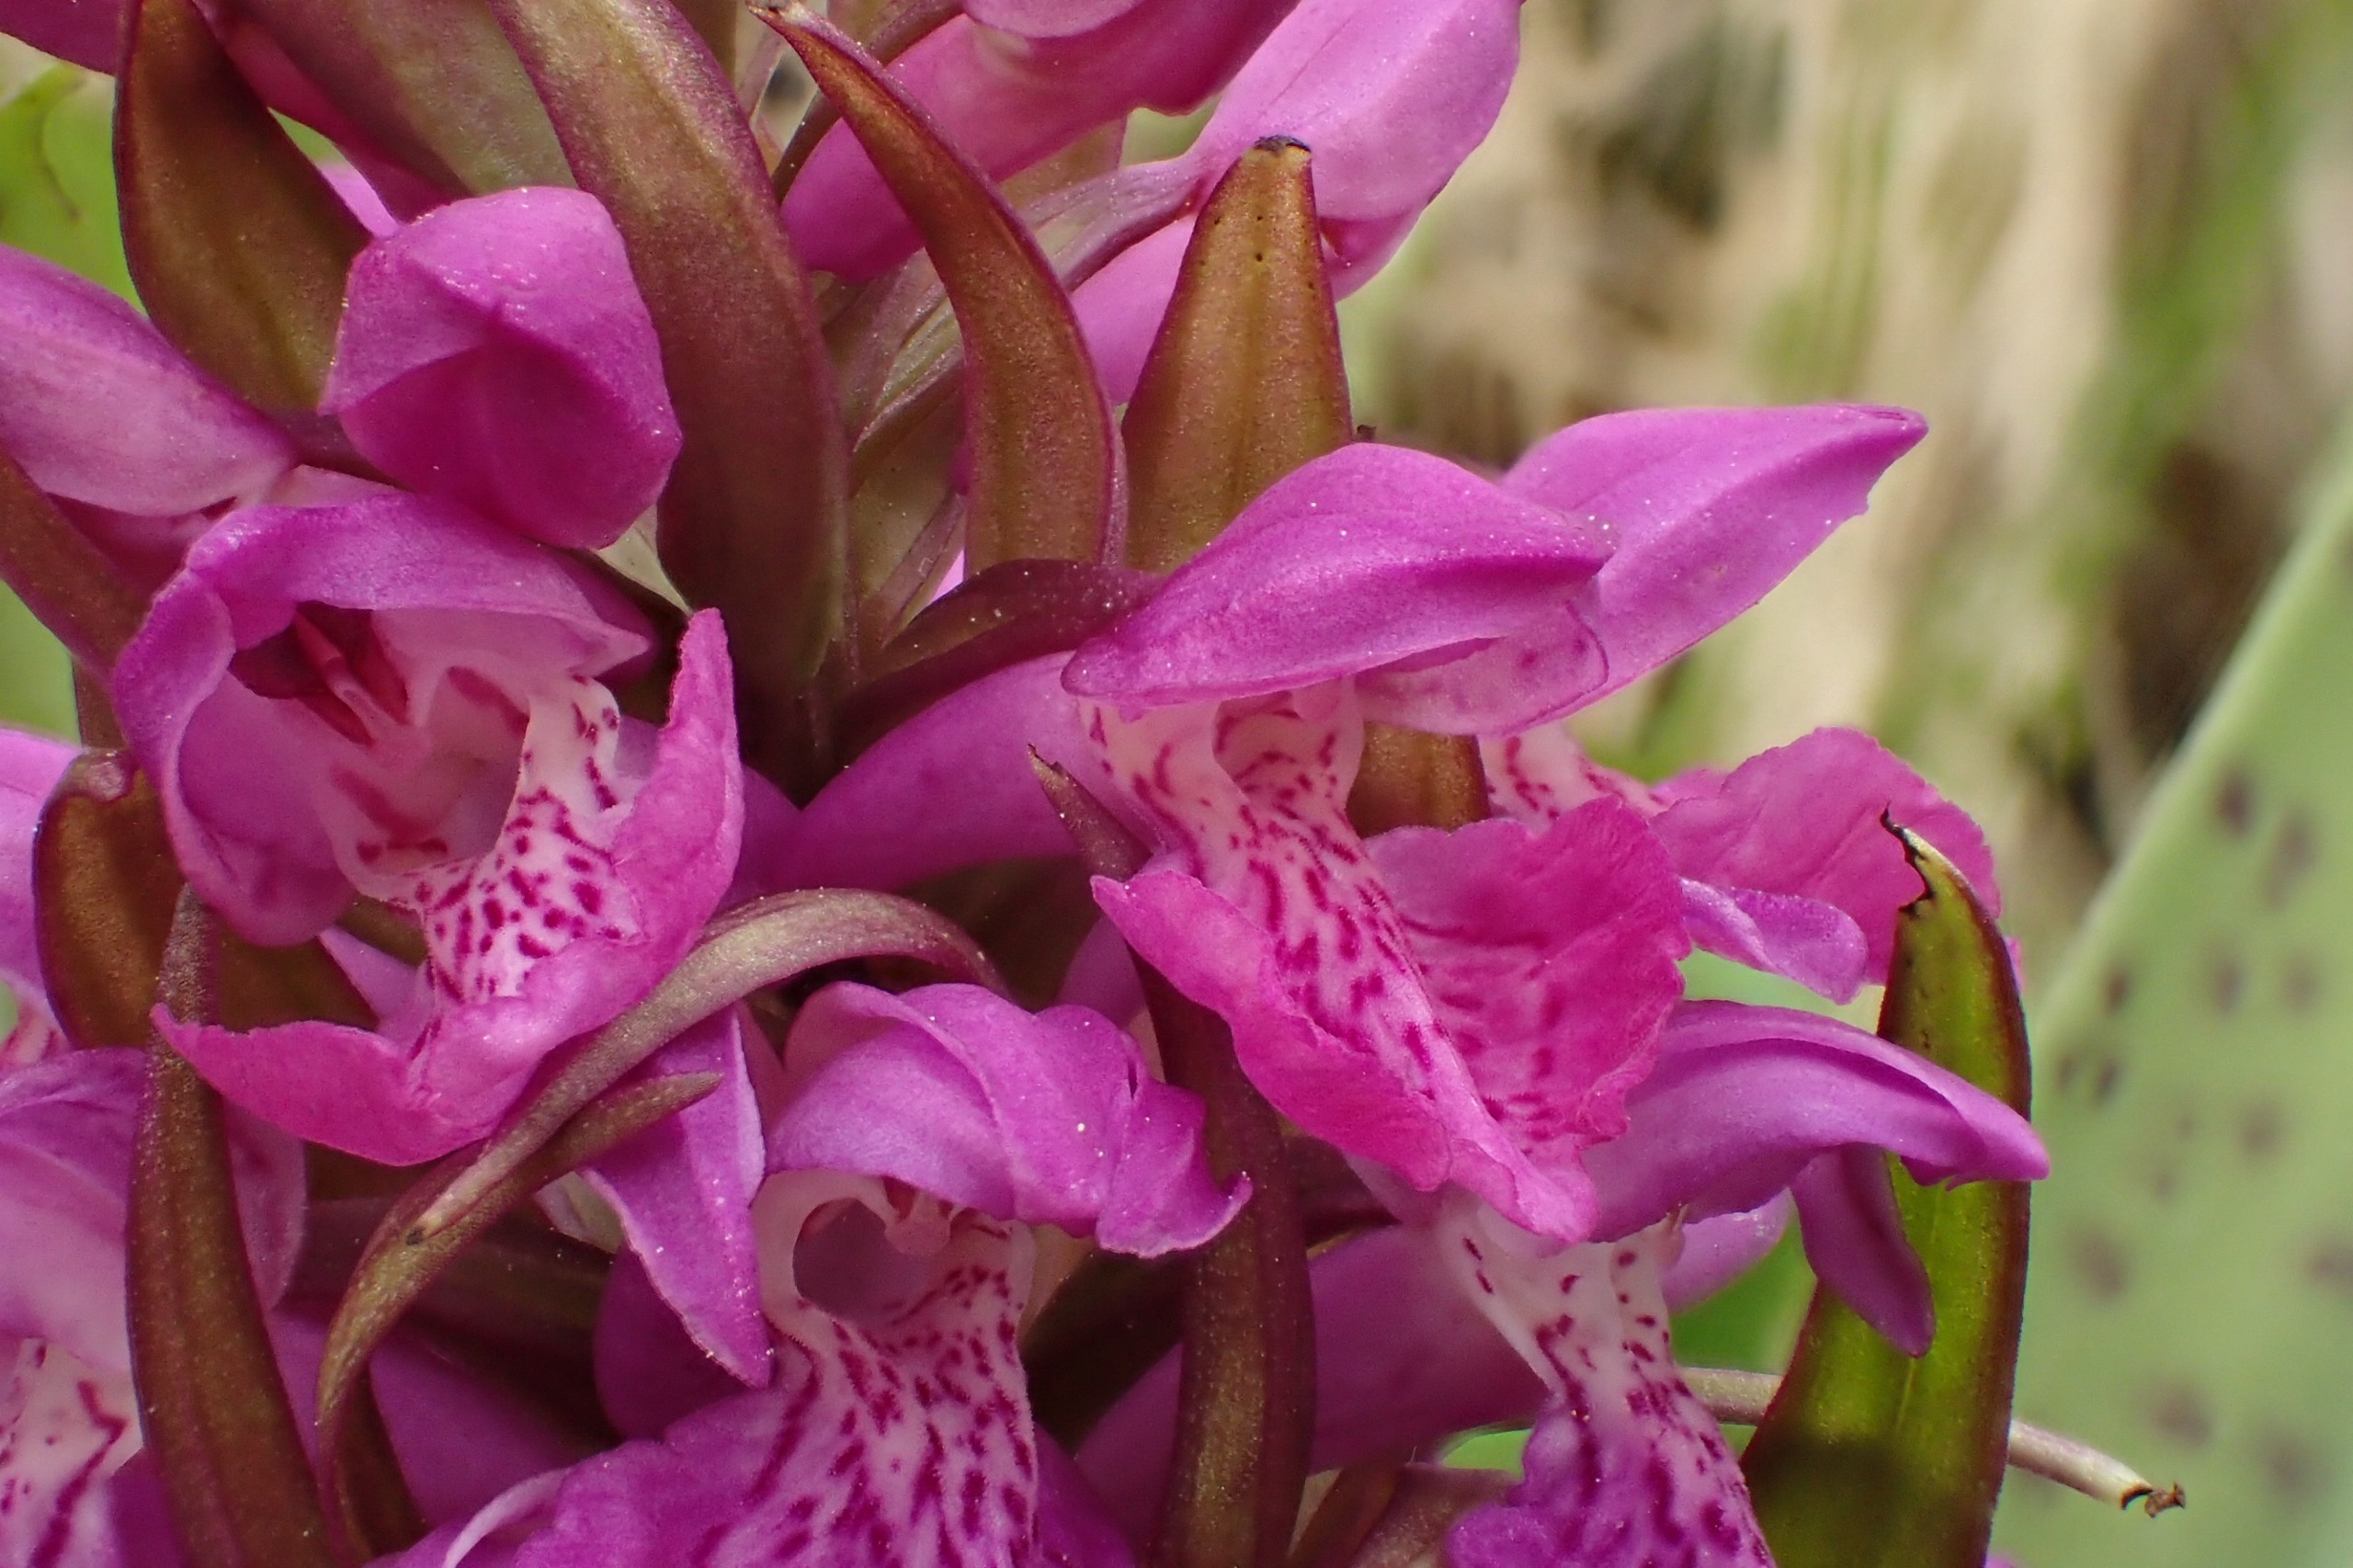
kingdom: Plantae
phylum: Tracheophyta
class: Liliopsida
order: Asparagales
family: Orchidaceae
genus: Dactylorhiza
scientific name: Dactylorhiza majalis
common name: Maj-gøgeurt
